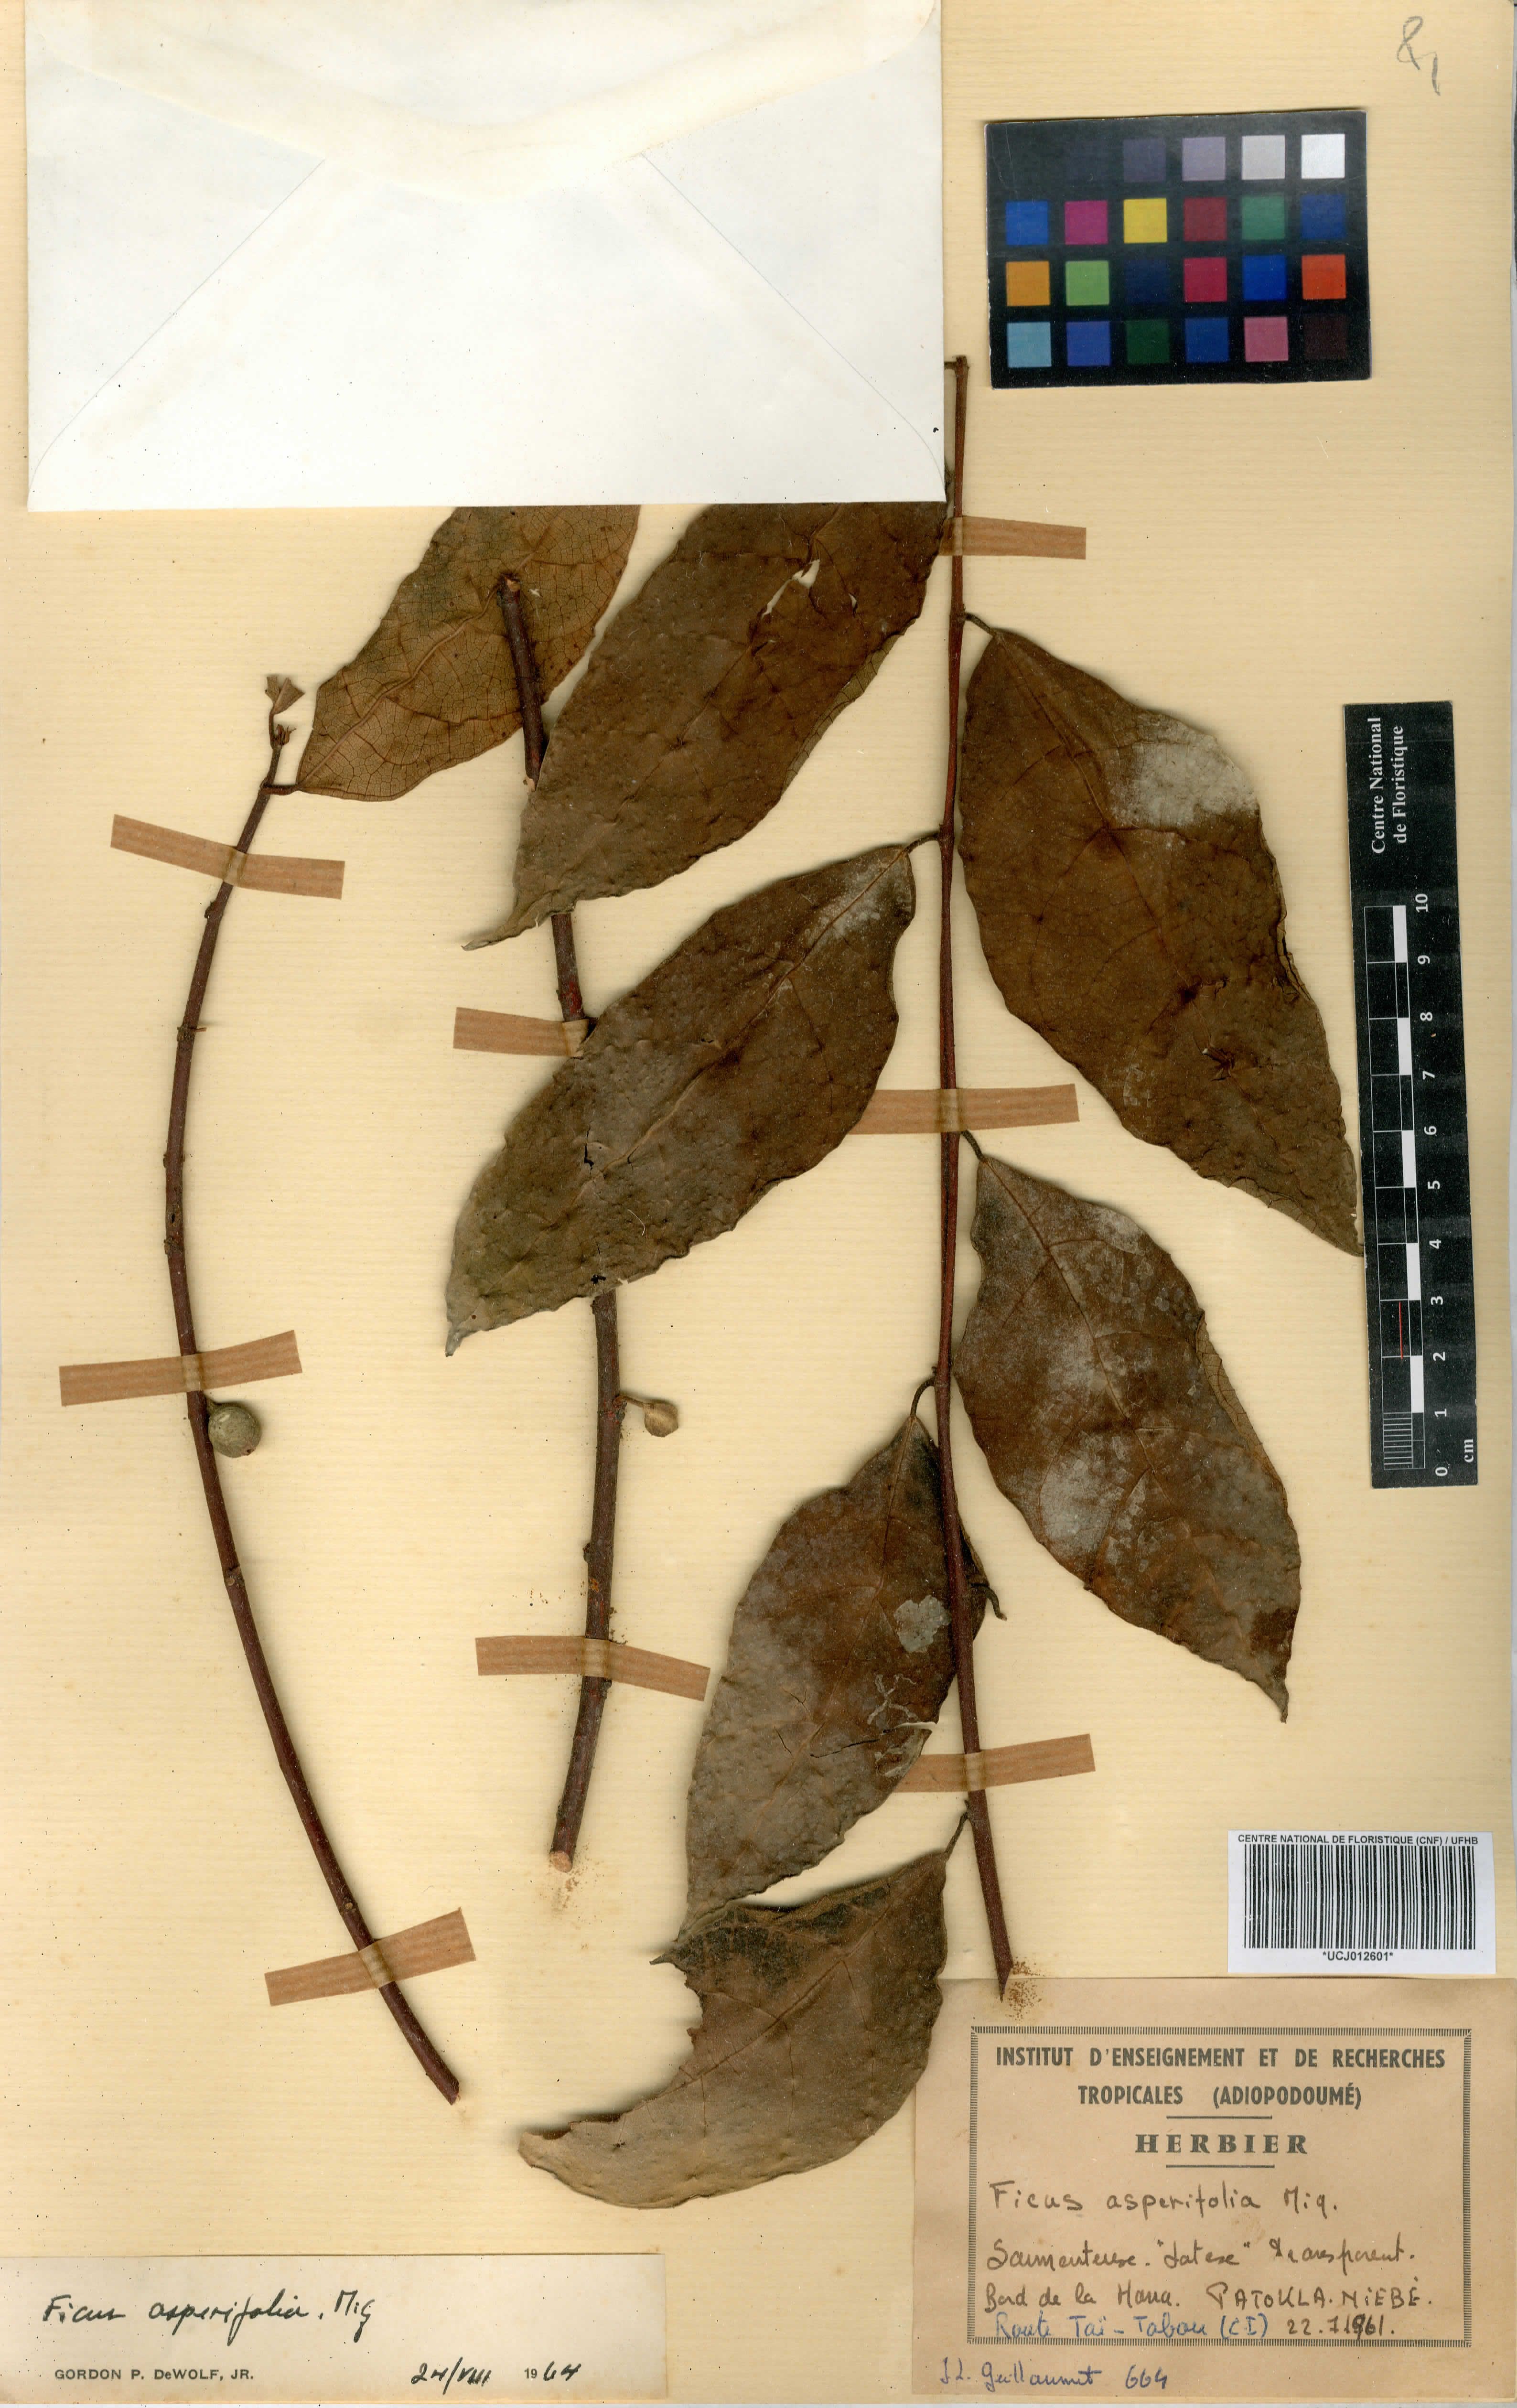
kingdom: Plantae
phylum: Tracheophyta
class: Magnoliopsida
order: Rosales
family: Moraceae
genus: Ficus
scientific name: Ficus asperifolia
